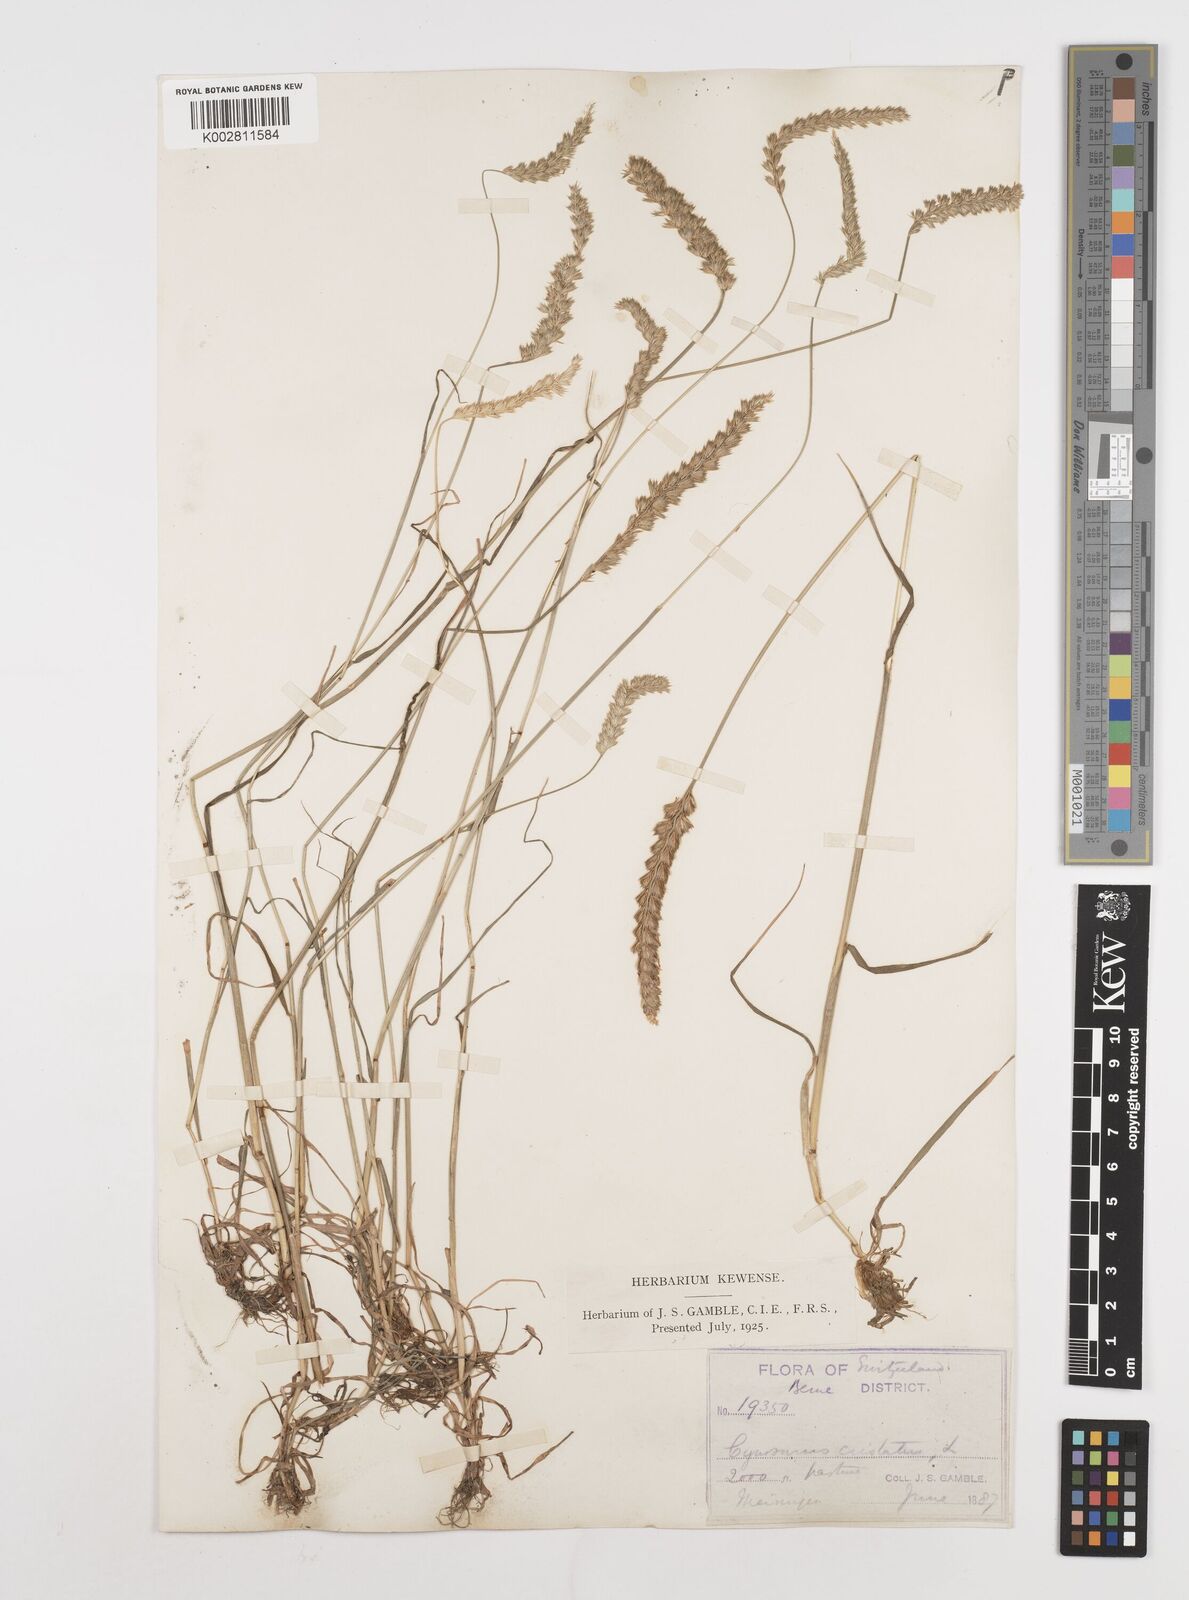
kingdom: Plantae
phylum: Tracheophyta
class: Liliopsida
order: Poales
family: Poaceae
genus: Cynosurus
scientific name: Cynosurus cristatus
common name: Crested dog's-tail
